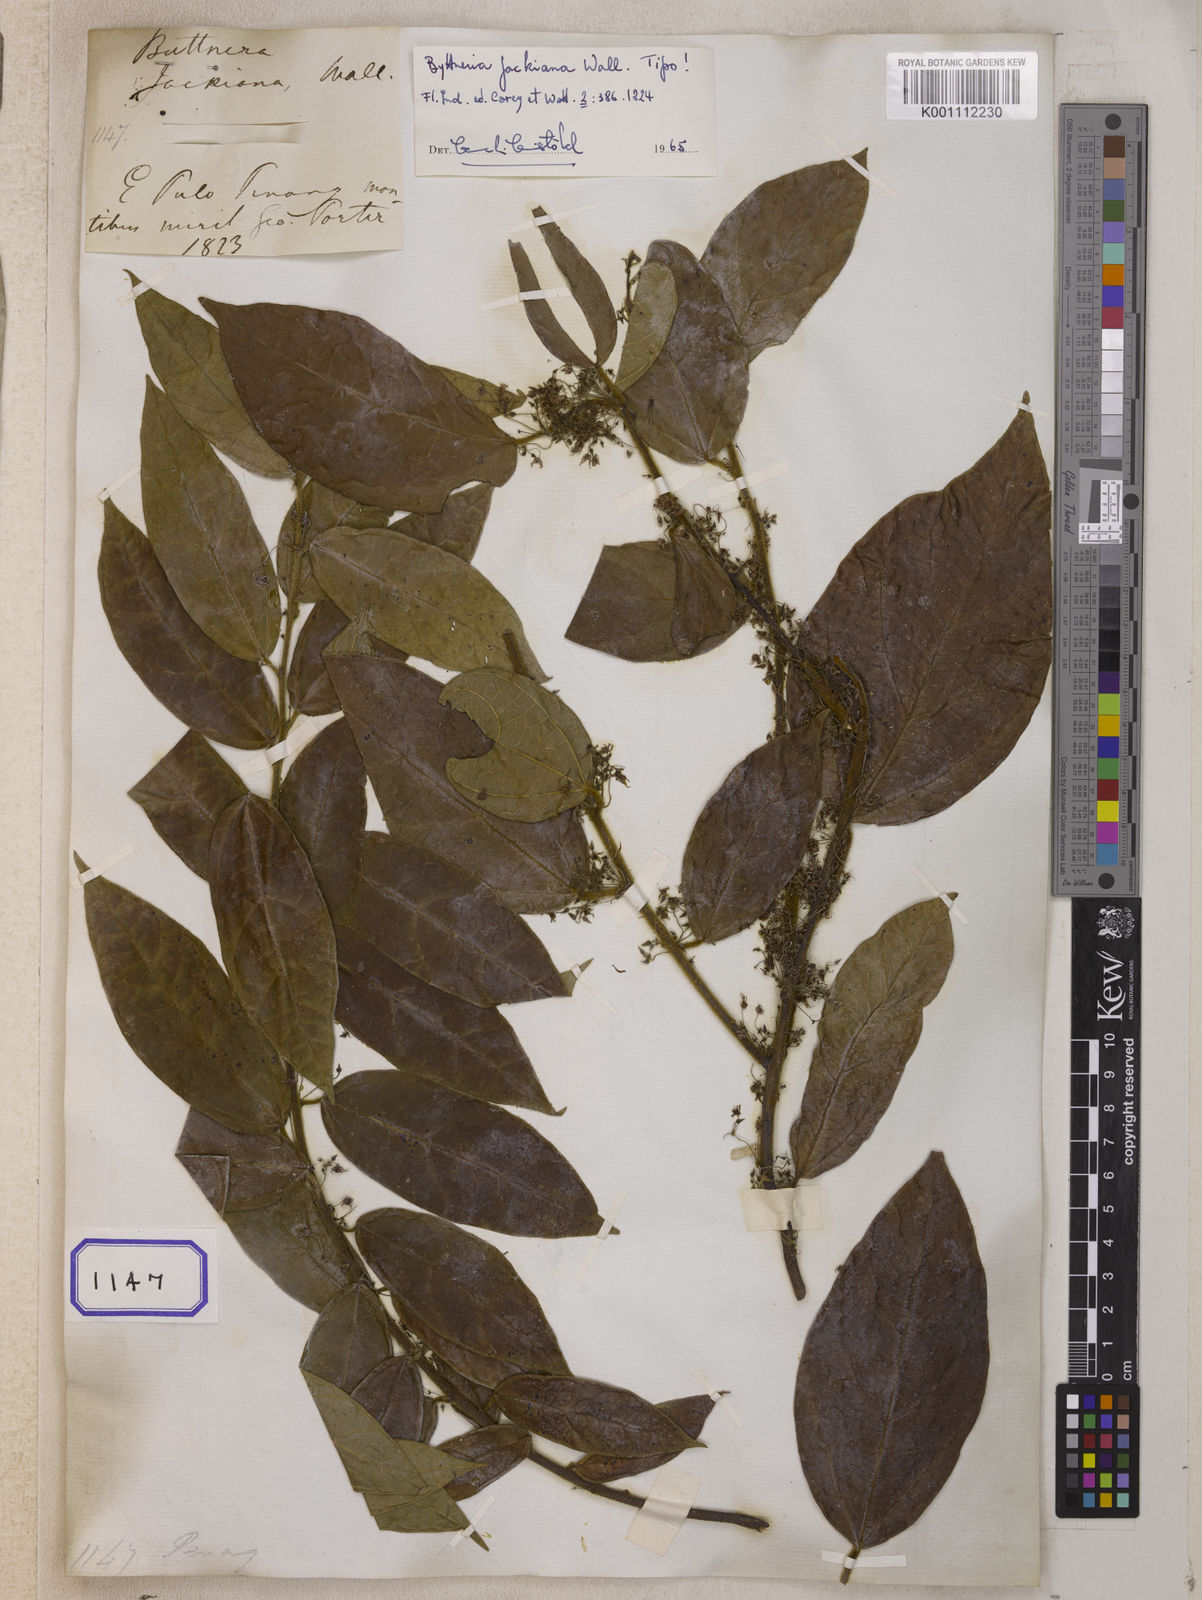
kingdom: Plantae
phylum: Tracheophyta
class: Magnoliopsida
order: Malvales
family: Malvaceae
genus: Byttneria
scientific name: Byttneria jackiana
